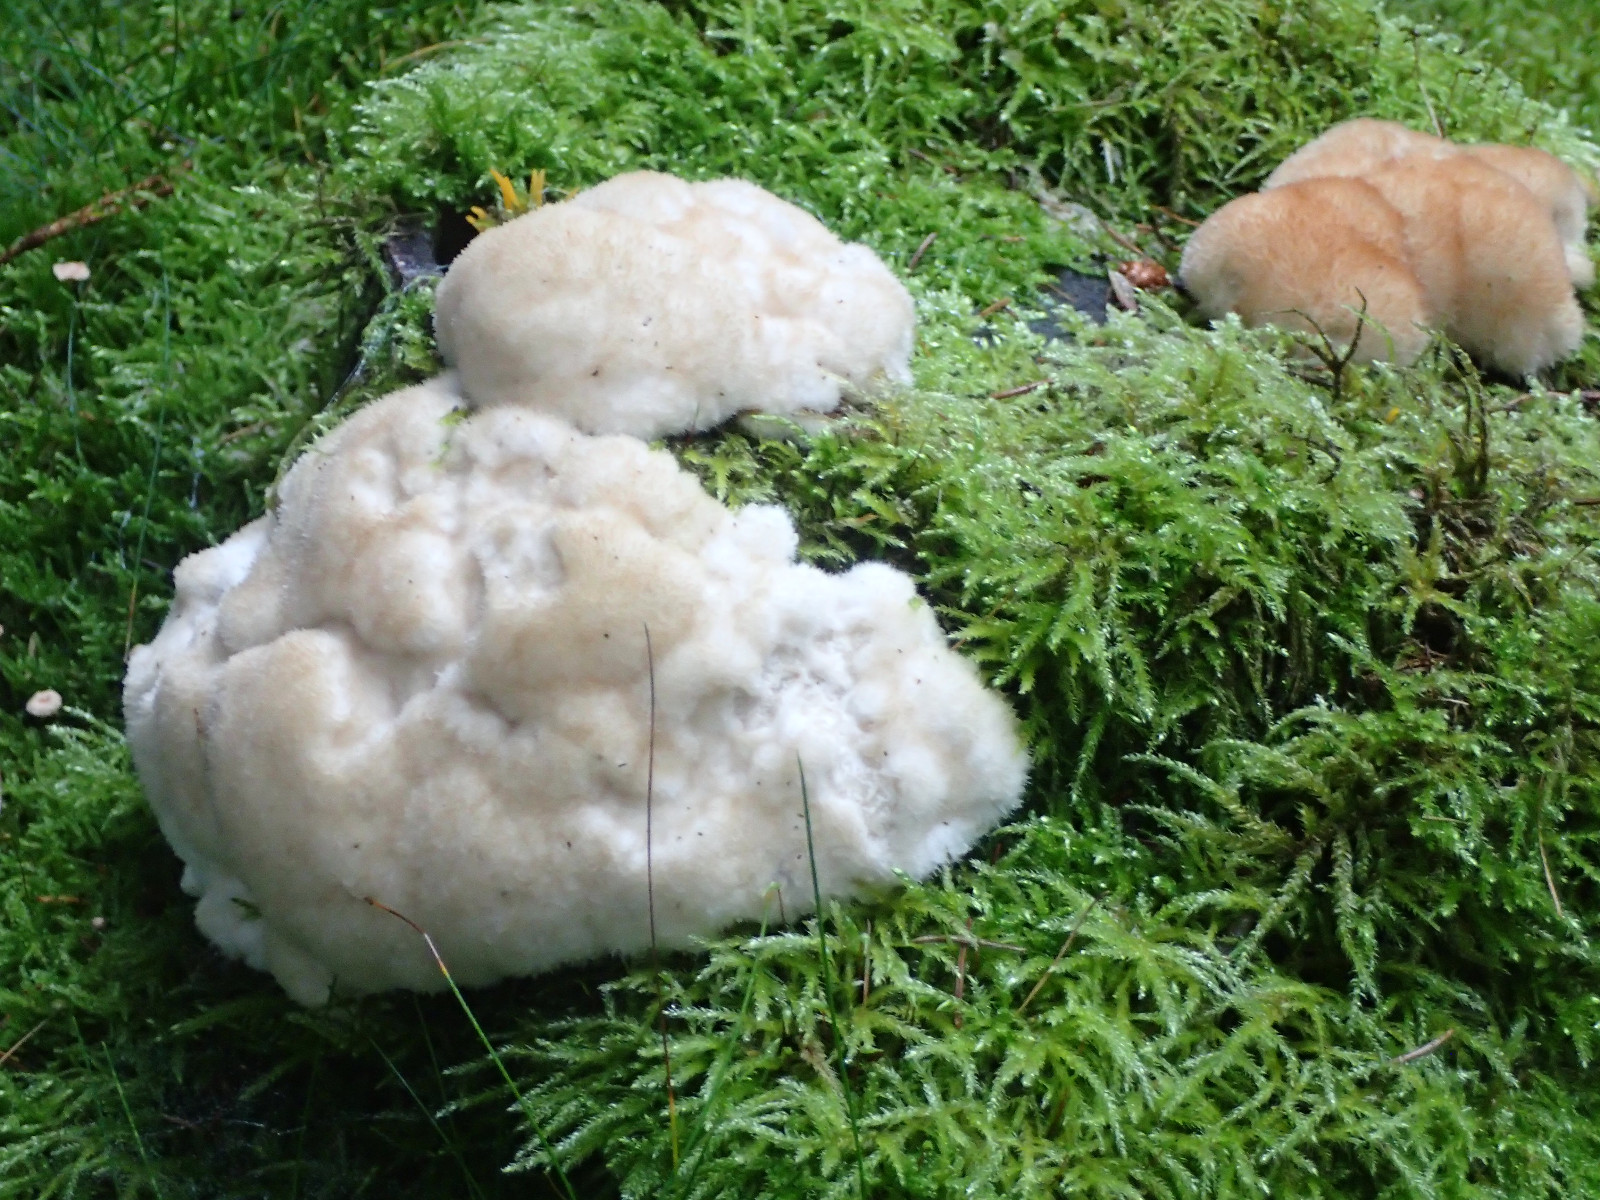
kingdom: Fungi
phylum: Basidiomycota
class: Agaricomycetes
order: Polyporales
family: Dacryobolaceae
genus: Postia
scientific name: Postia ptychogaster
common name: støvende kødporesvamp
